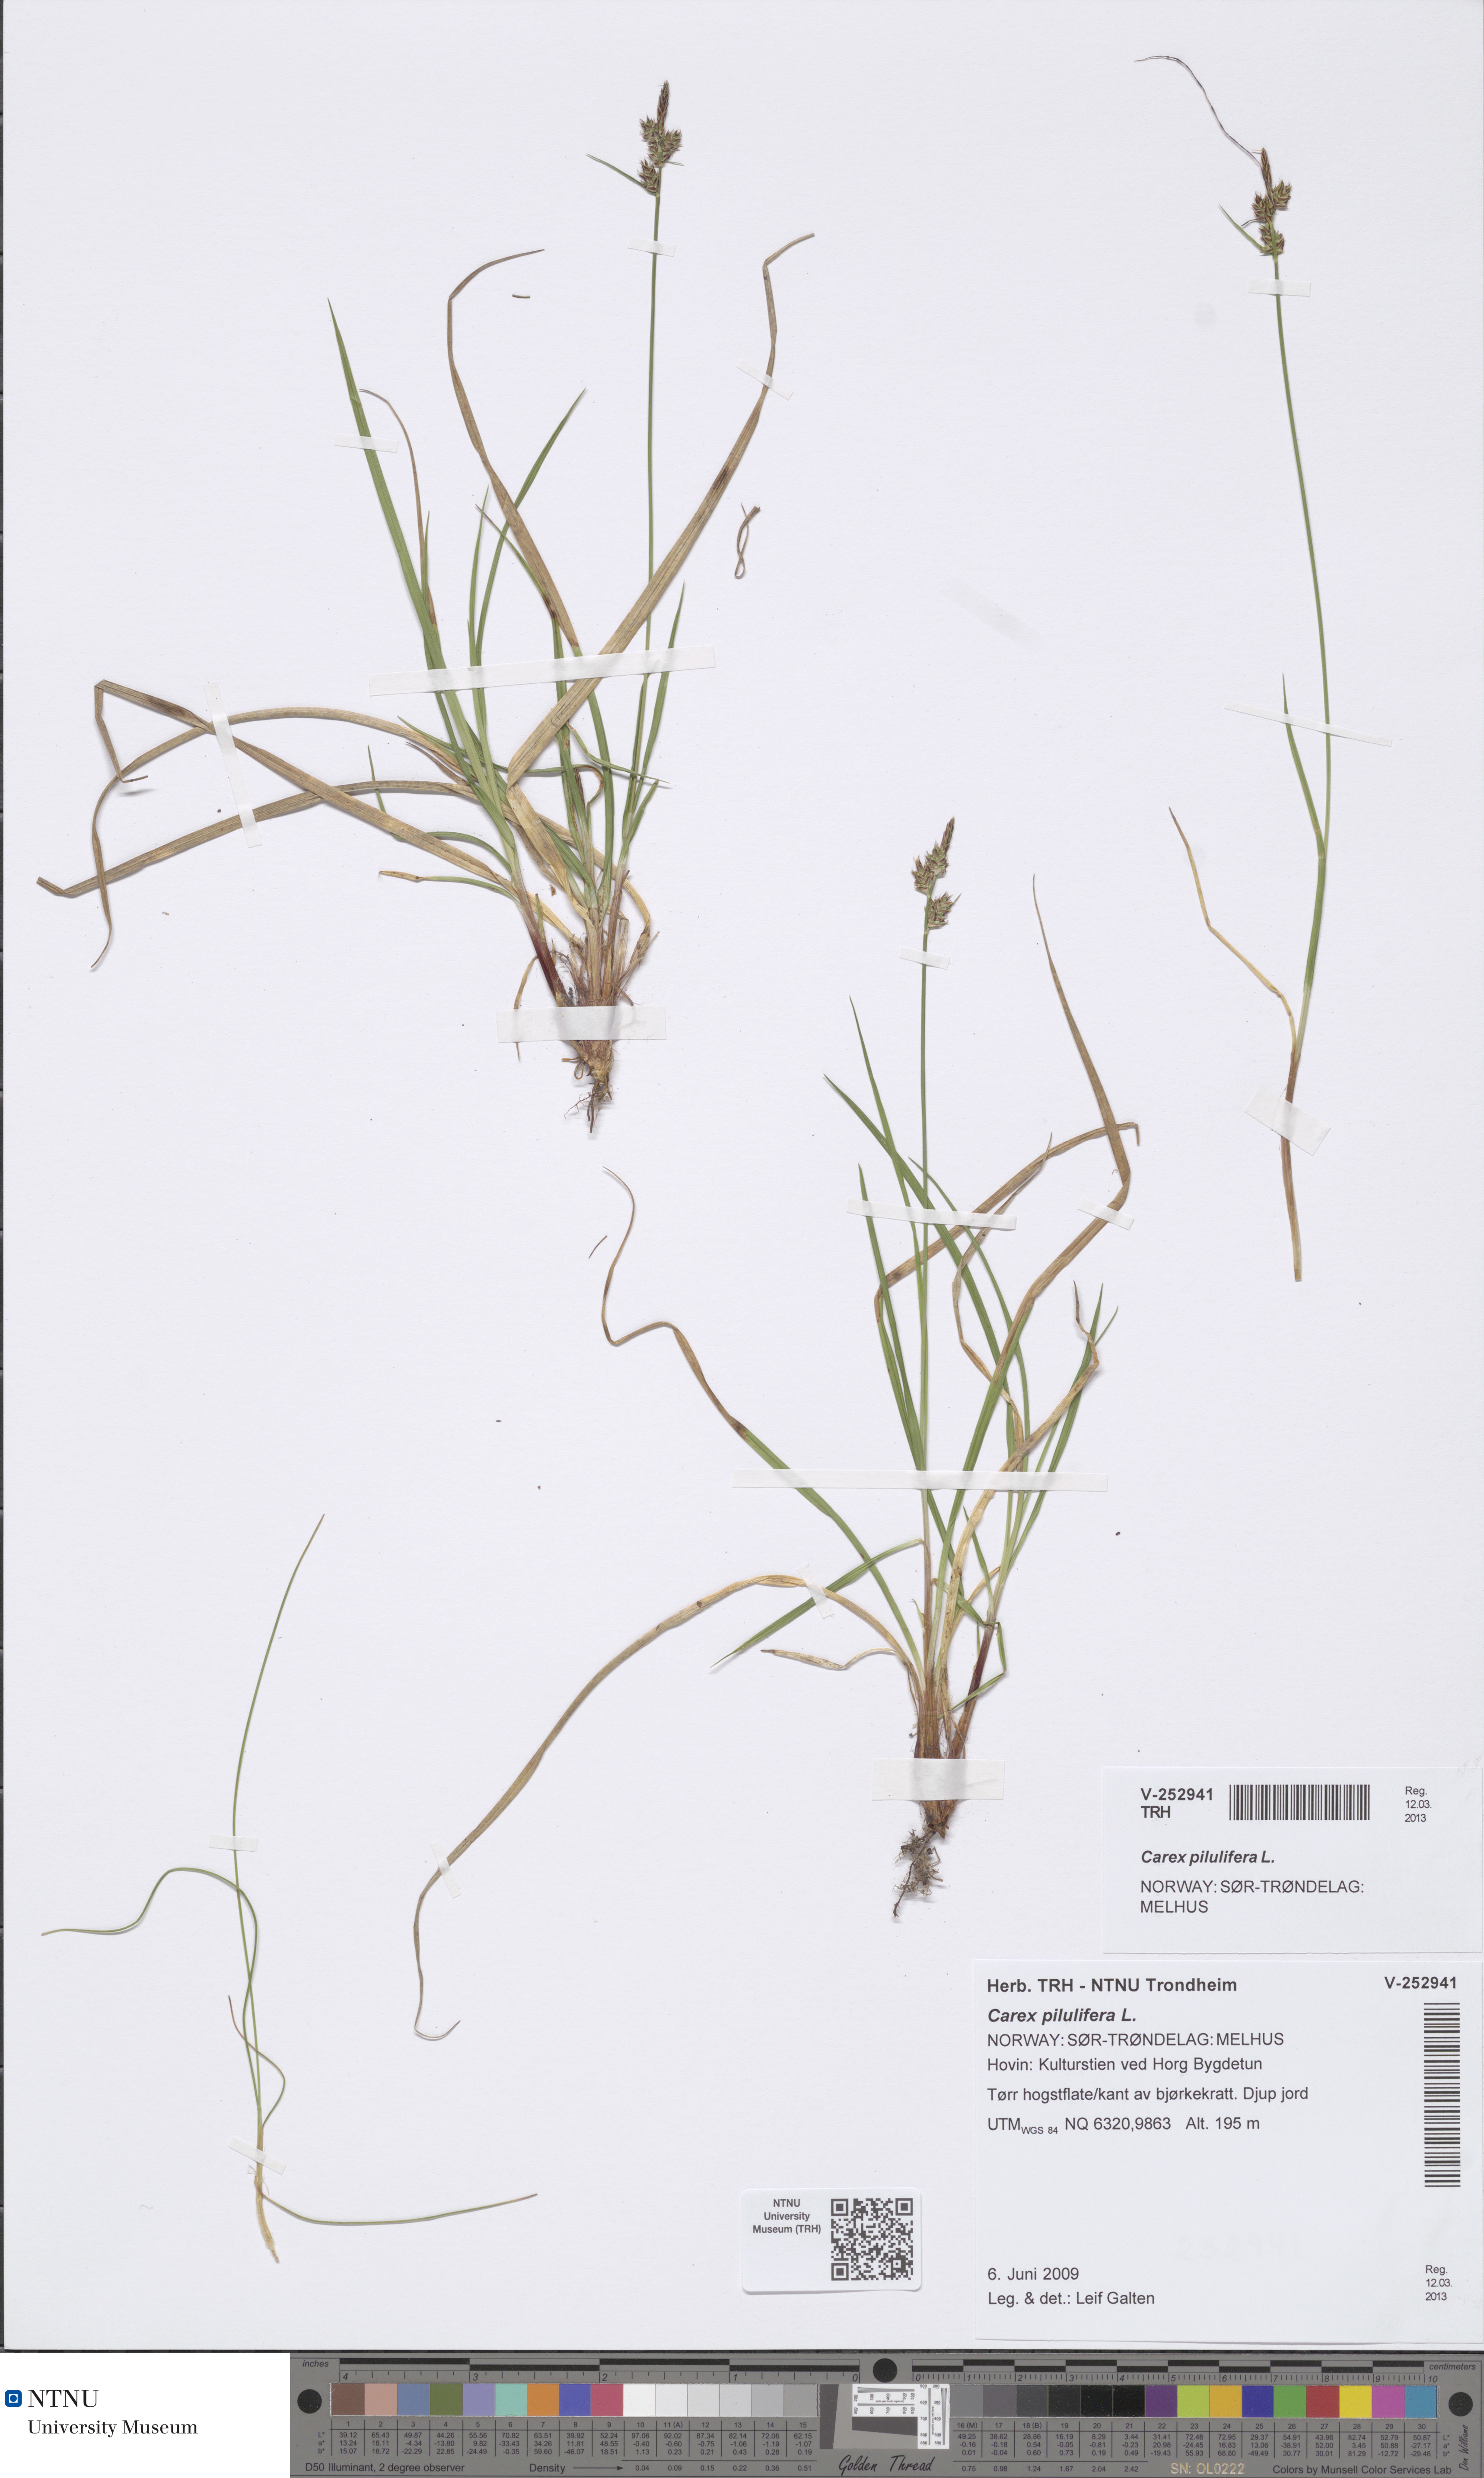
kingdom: Plantae
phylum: Tracheophyta
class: Liliopsida
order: Poales
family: Cyperaceae
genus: Carex
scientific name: Carex pilulifera
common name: Pill sedge
